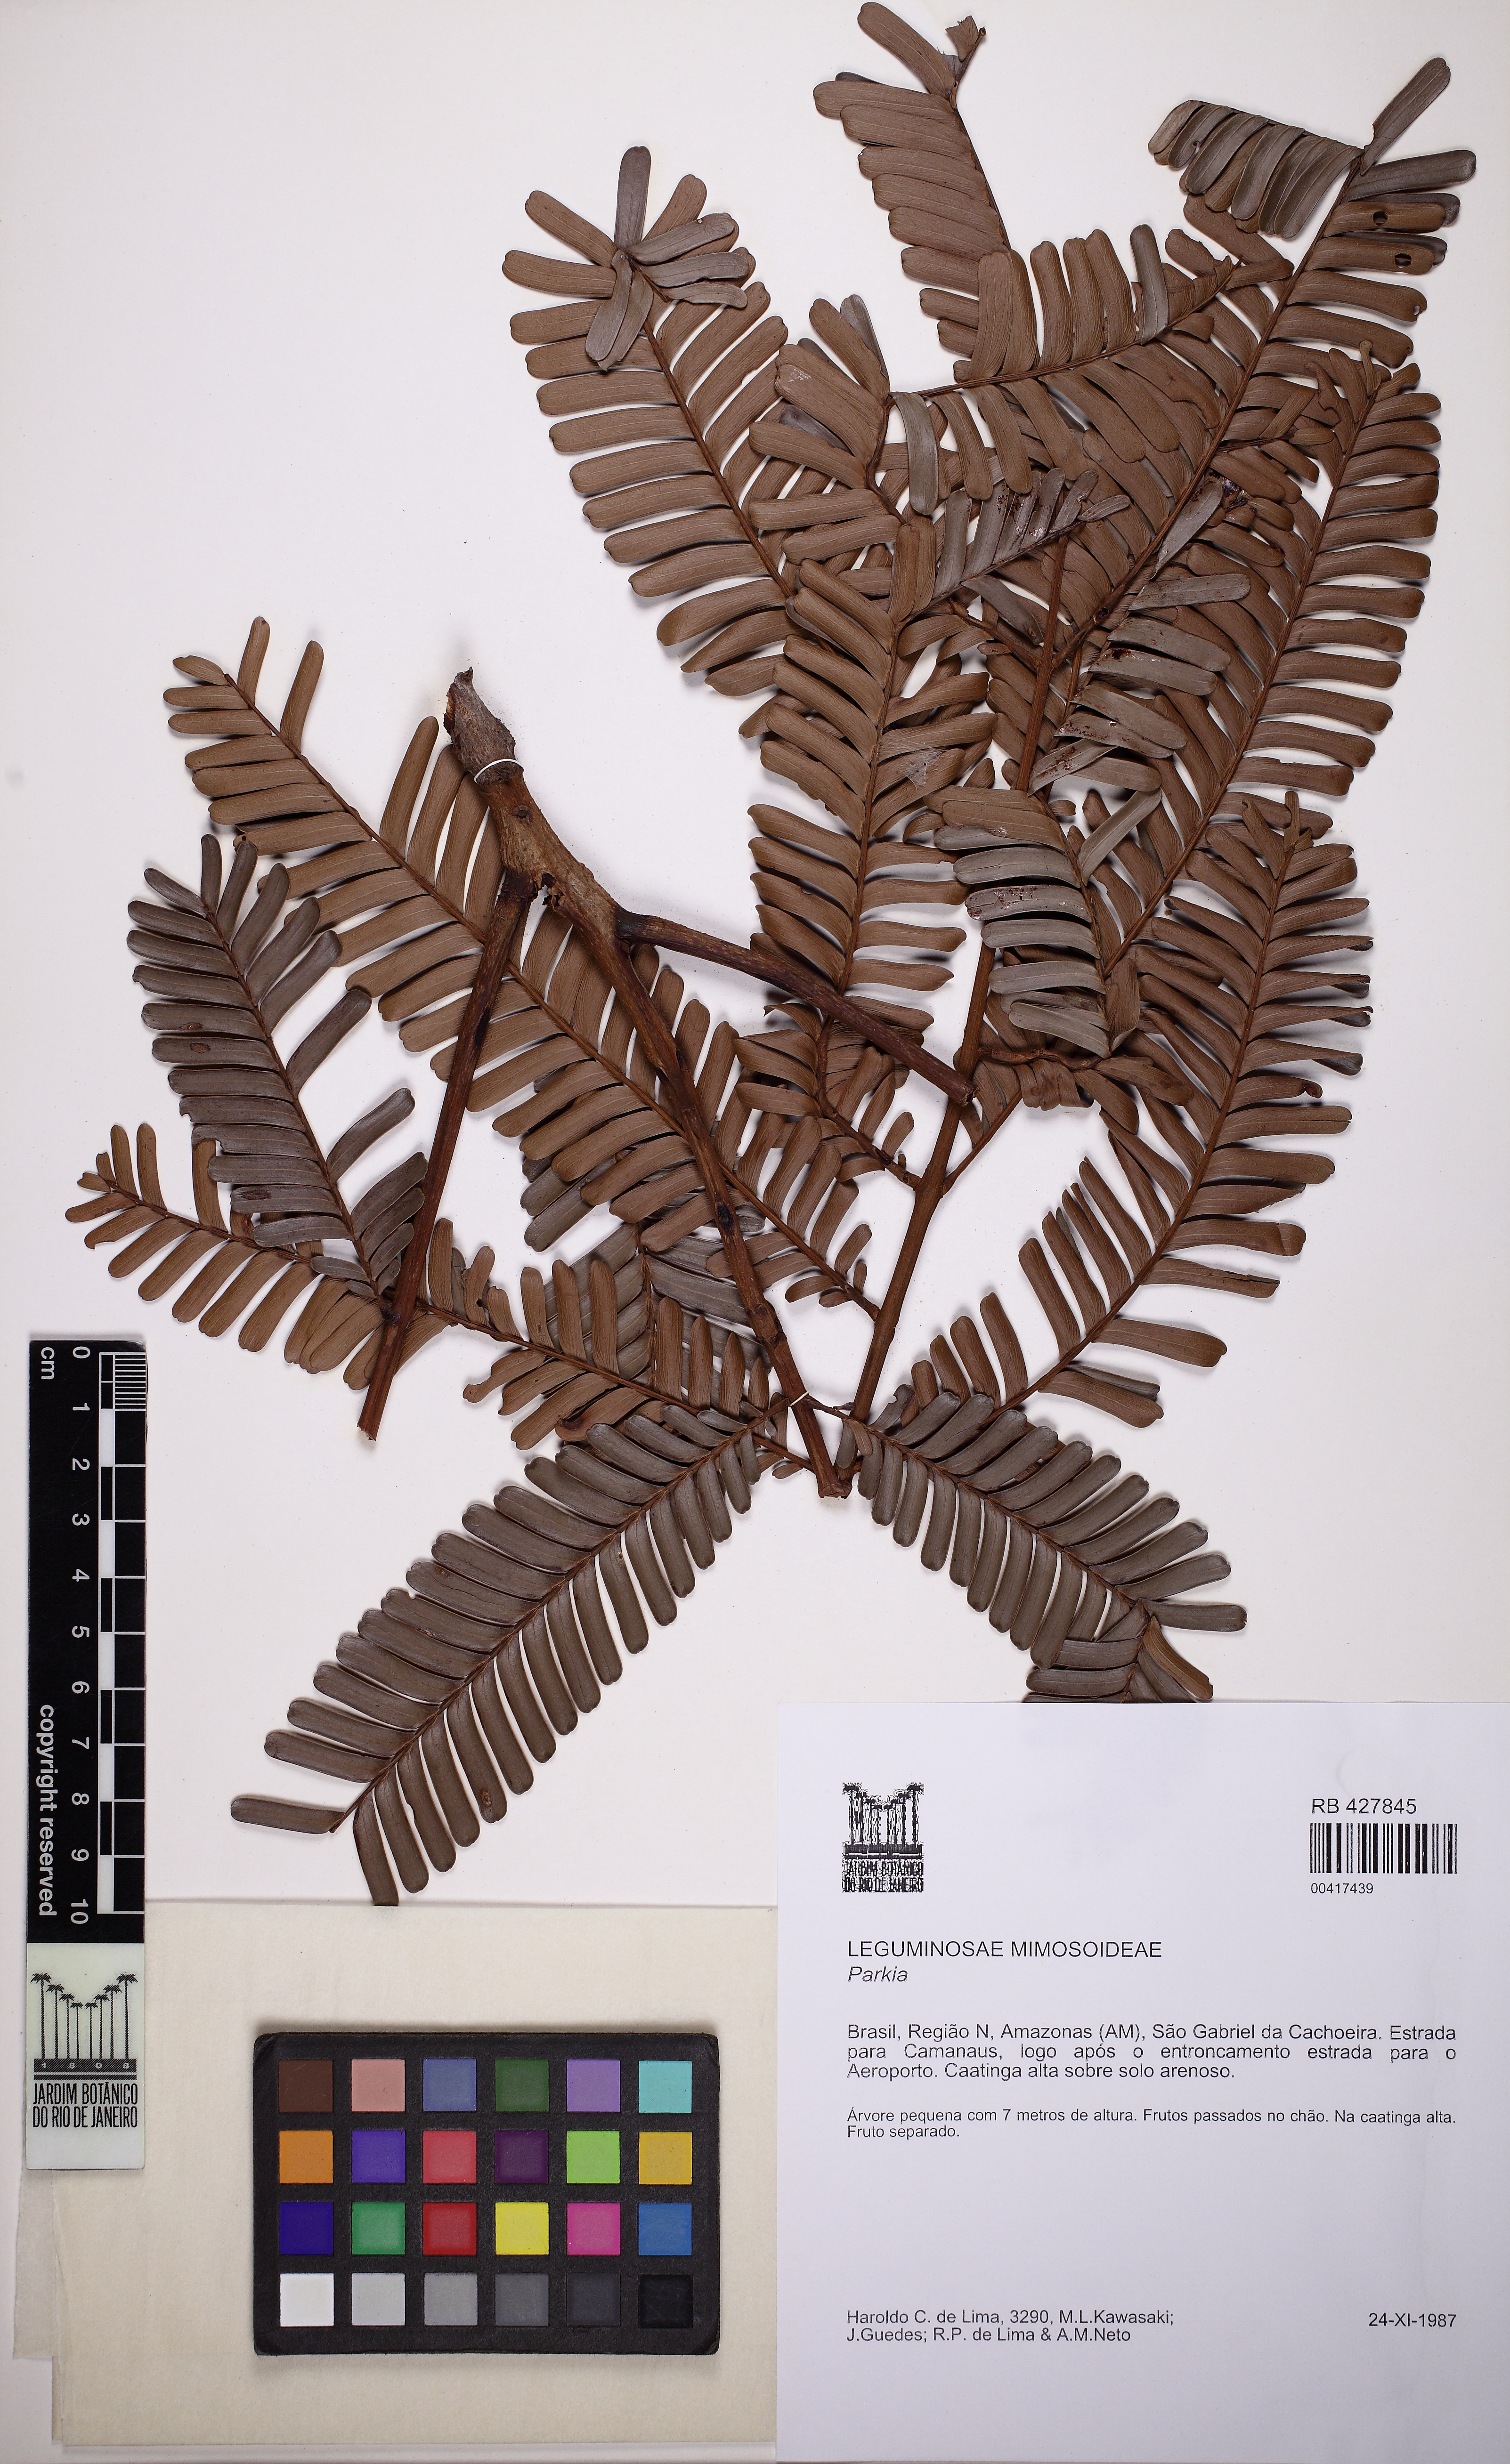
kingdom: Plantae
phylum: Tracheophyta
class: Magnoliopsida
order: Fabales
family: Fabaceae
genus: Parkia
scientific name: Parkia igneiflora
